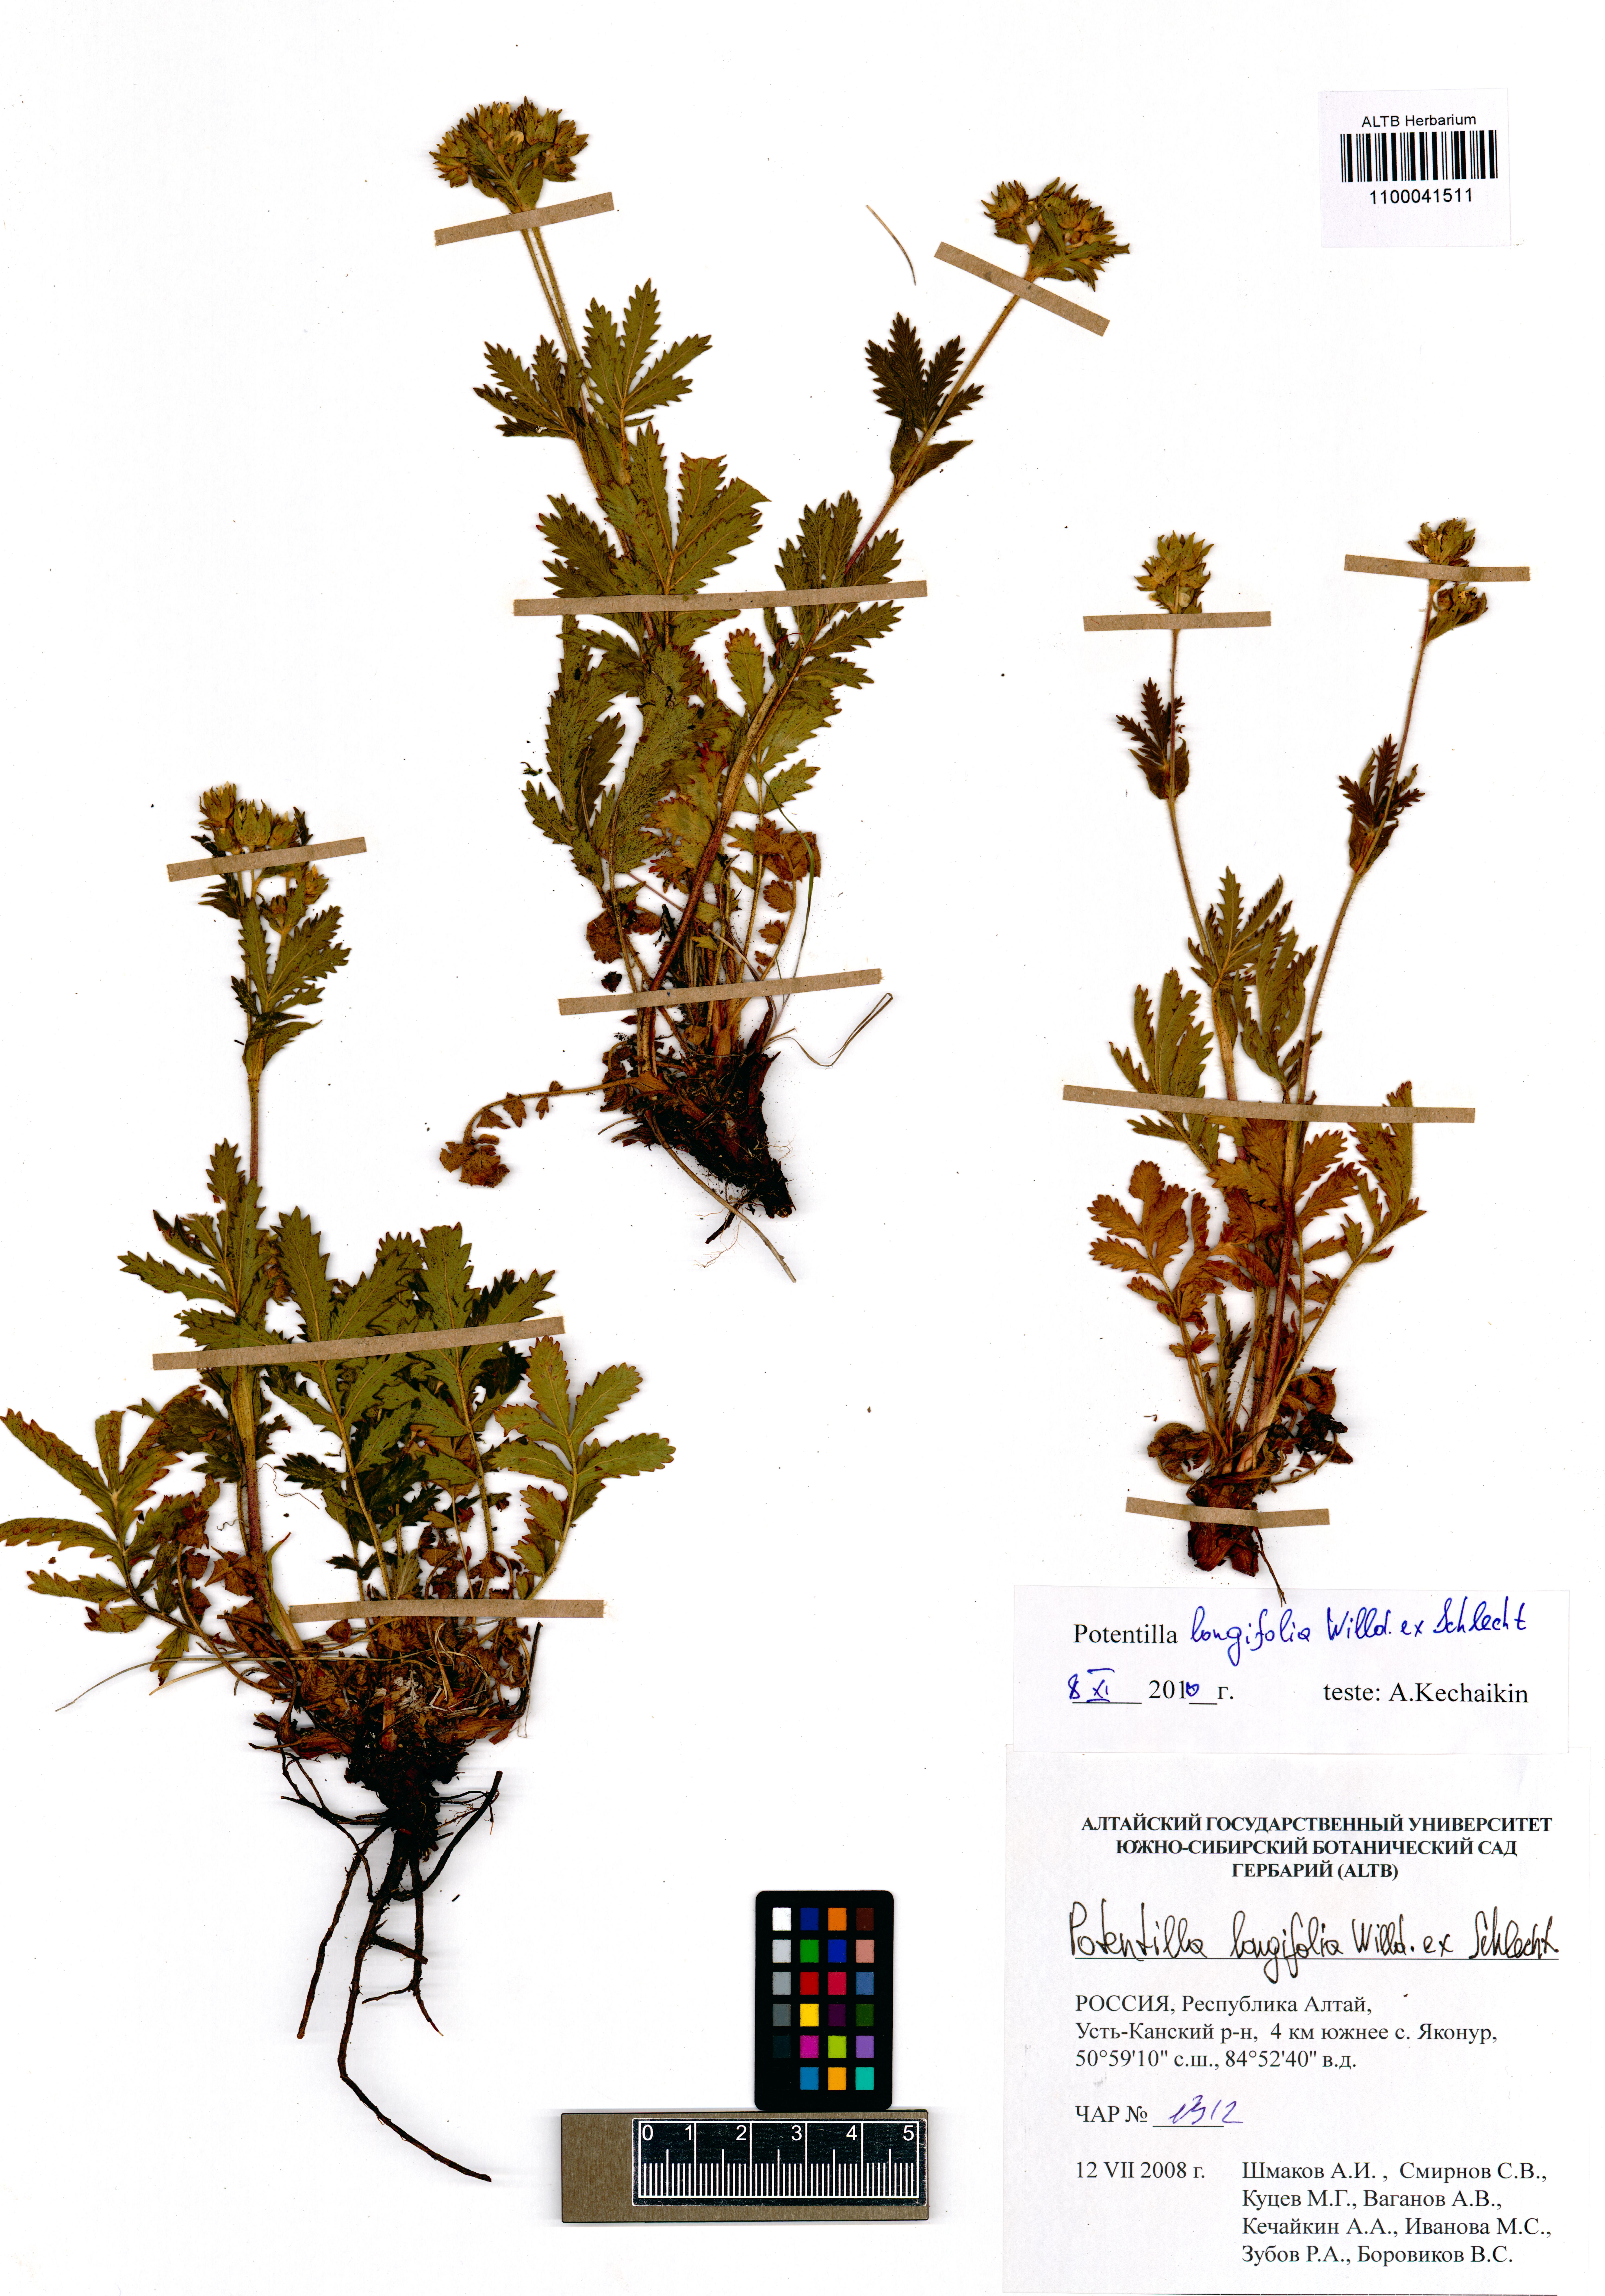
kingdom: Plantae
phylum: Tracheophyta
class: Magnoliopsida
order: Rosales
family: Rosaceae
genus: Potentilla
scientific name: Potentilla longifolia
